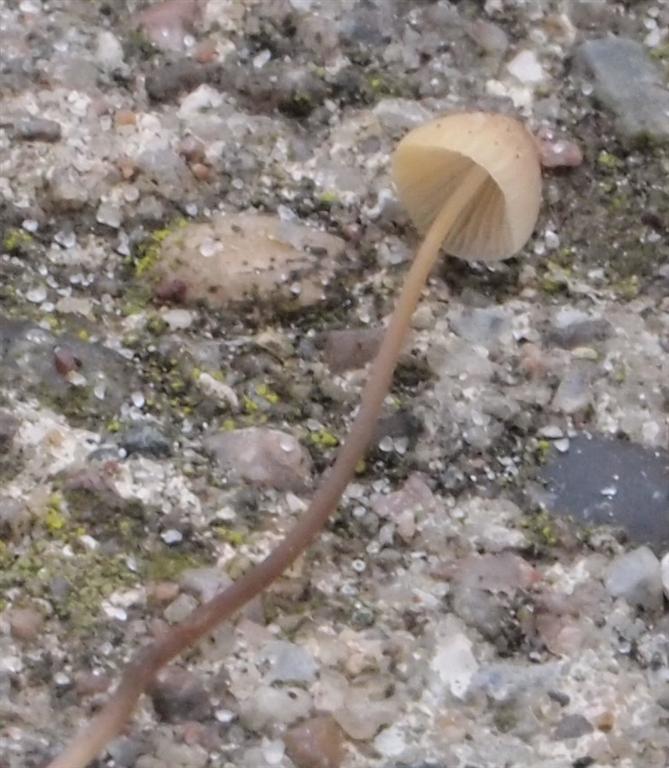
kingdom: Fungi
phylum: Basidiomycota
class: Agaricomycetes
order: Agaricales
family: Mycenaceae
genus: Mycena
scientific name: Mycena metata
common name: rødlig huesvamp
